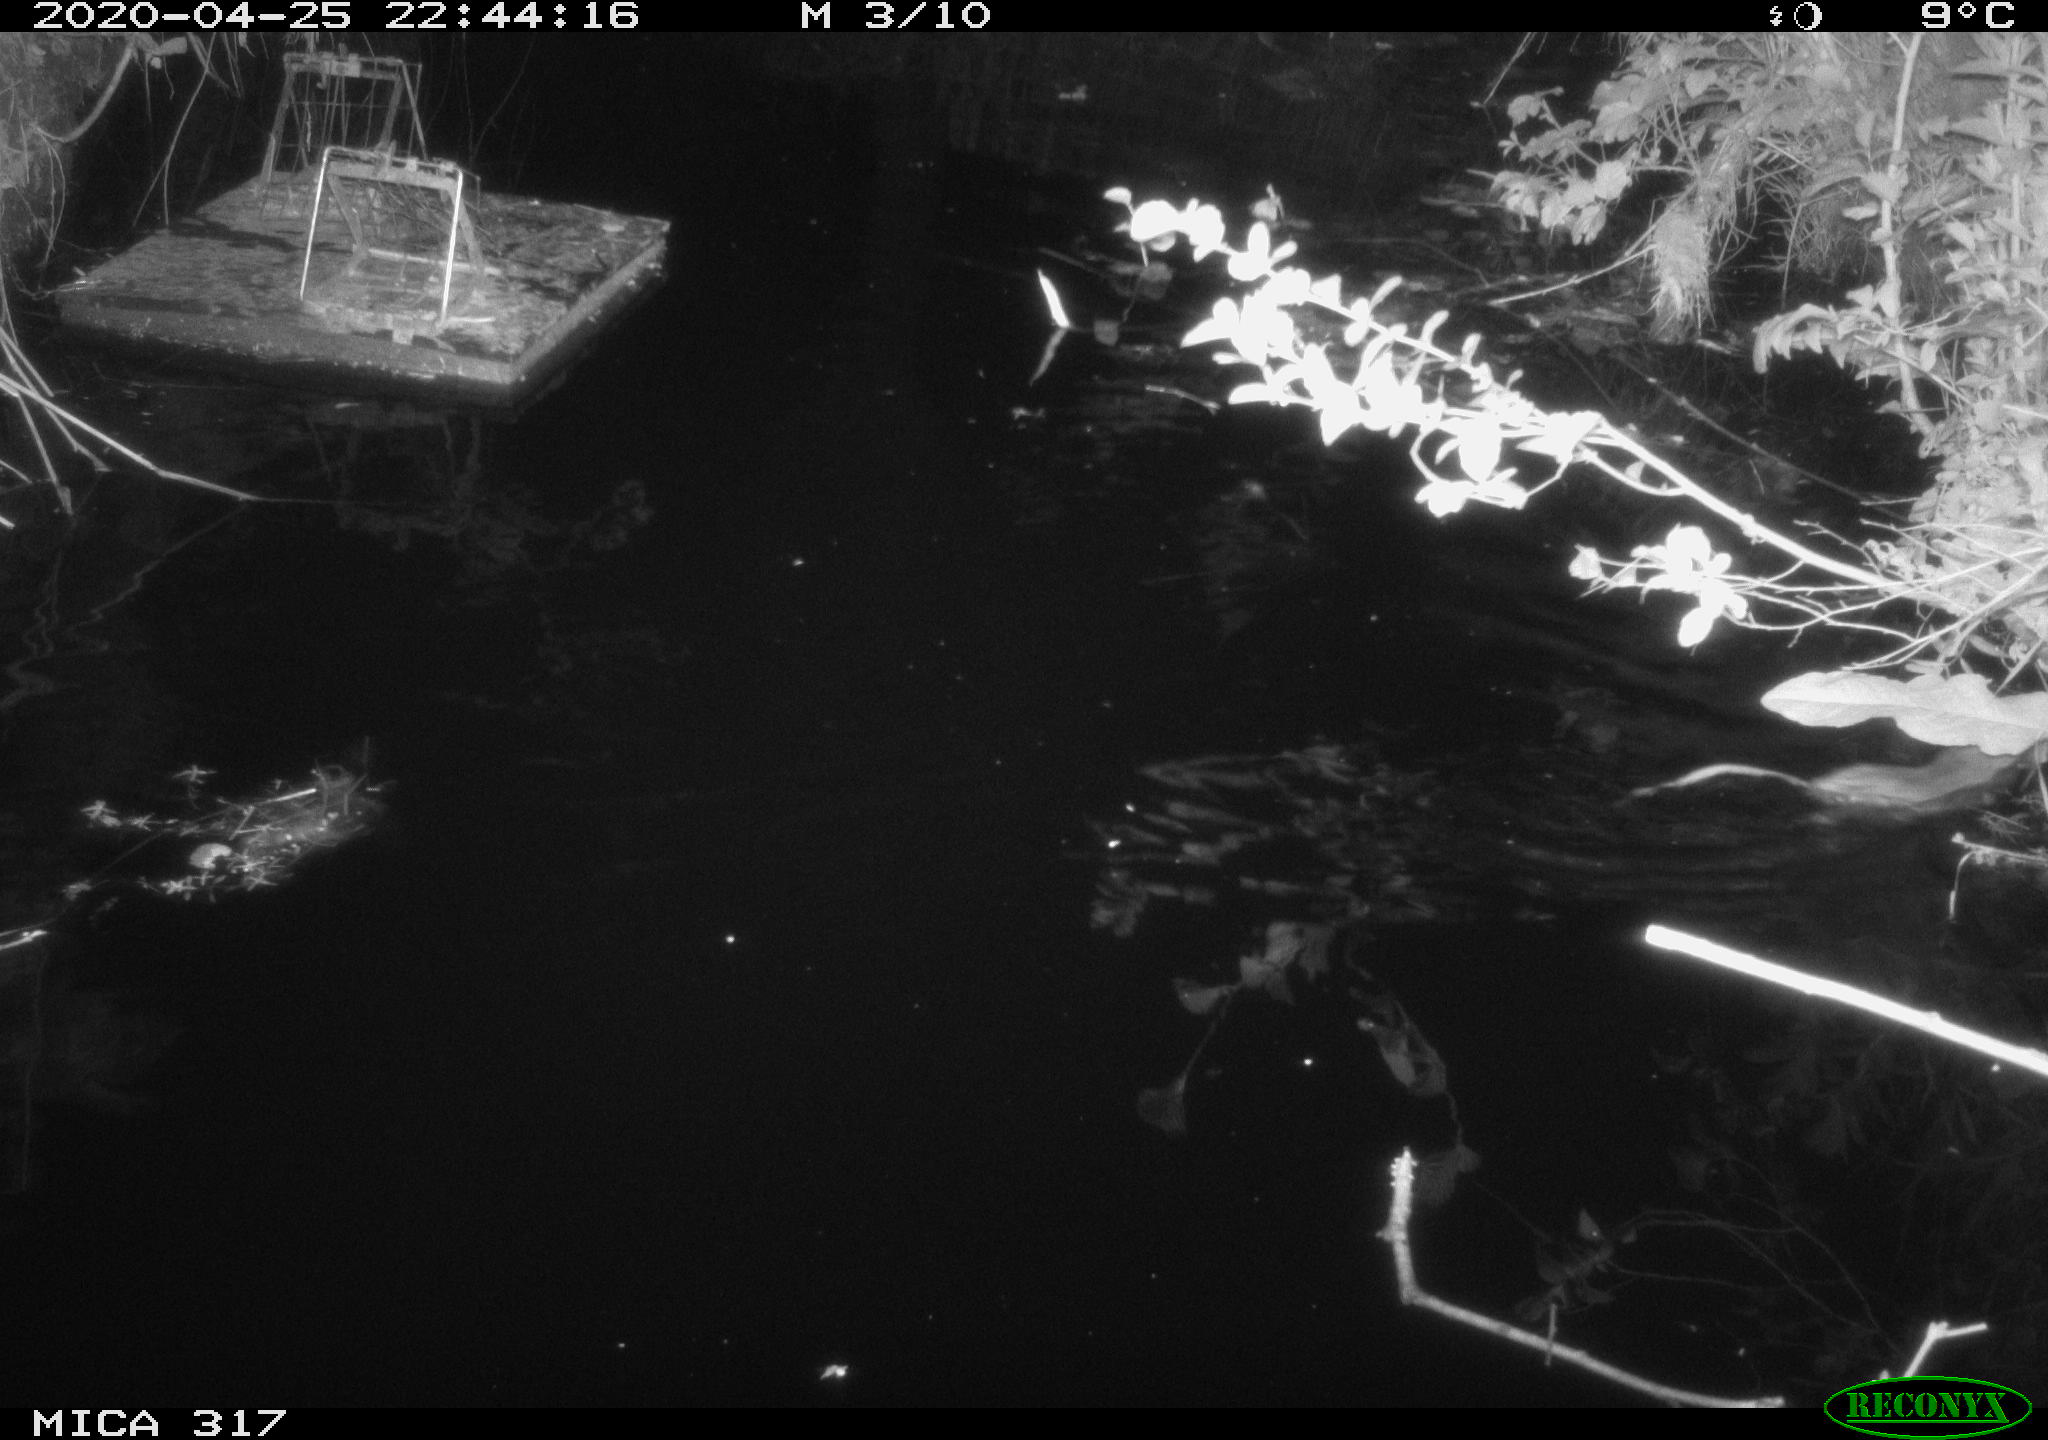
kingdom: Animalia
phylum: Chordata
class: Mammalia
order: Rodentia
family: Muridae
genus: Rattus
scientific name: Rattus norvegicus
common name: Brown rat
